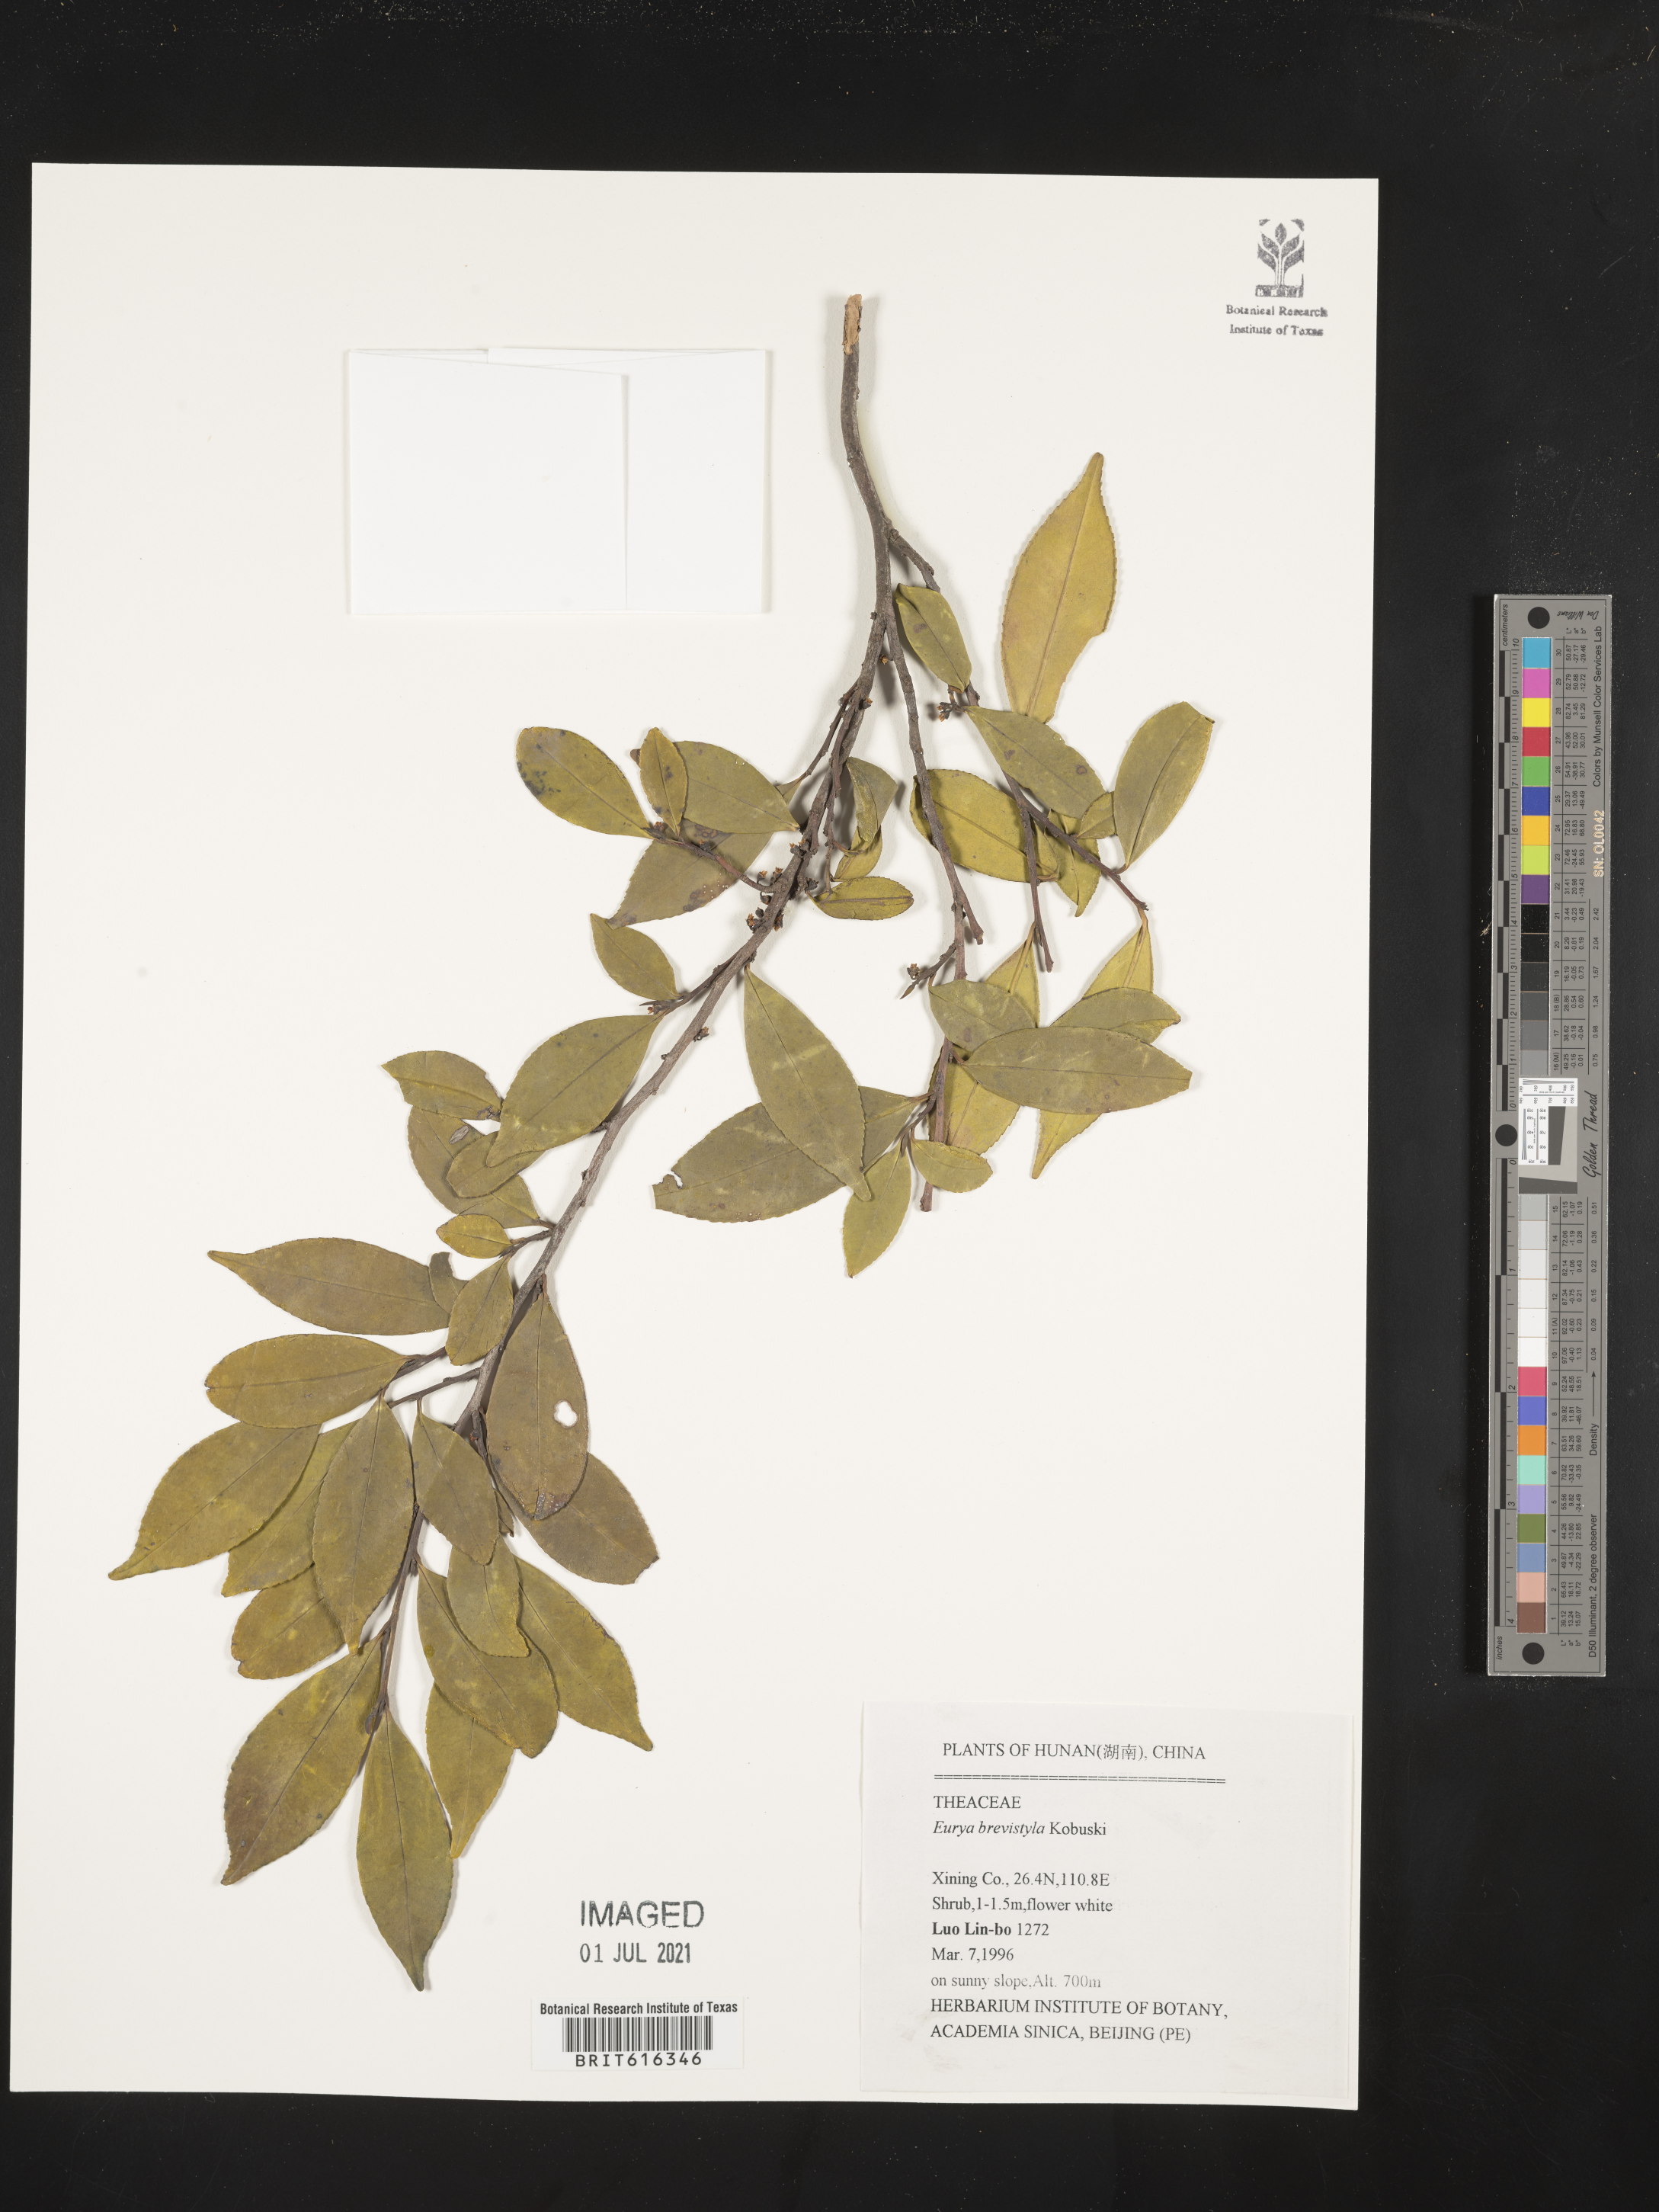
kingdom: Plantae
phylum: Tracheophyta
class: Magnoliopsida
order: Ericales
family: Pentaphylacaceae
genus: Eurya
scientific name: Eurya brevistyla
